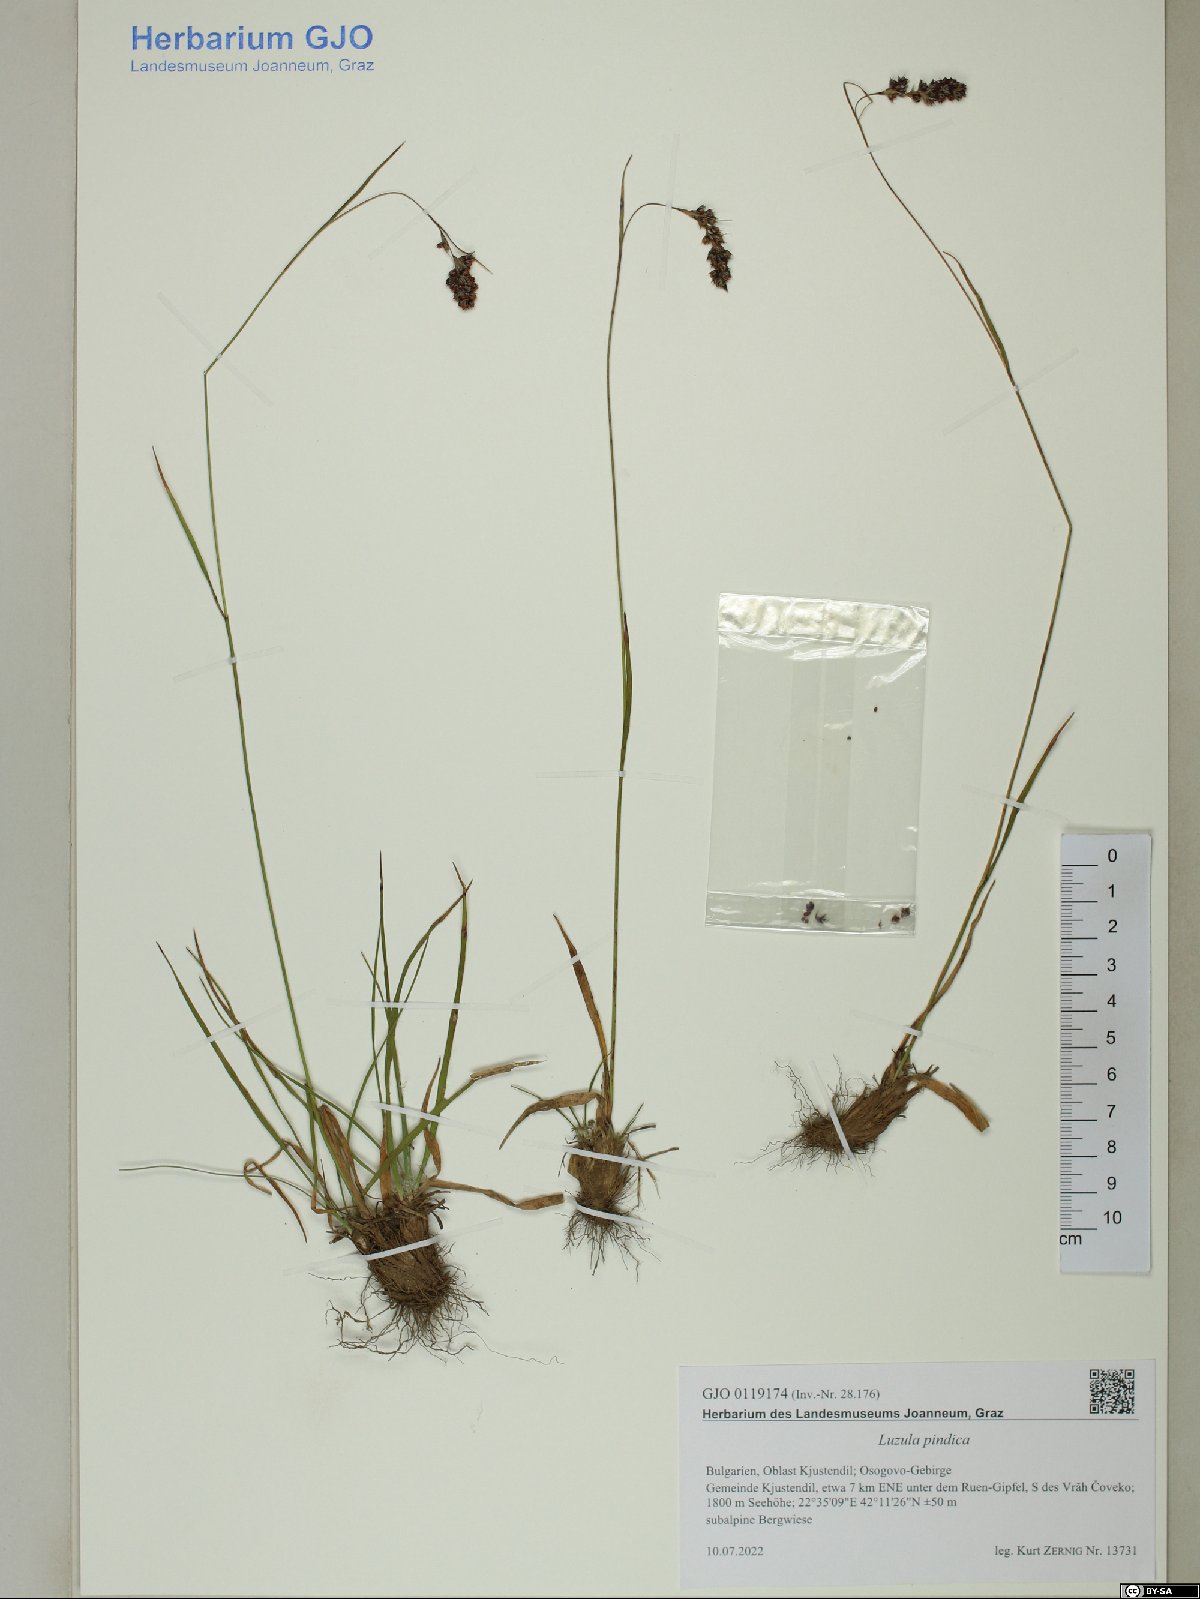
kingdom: Plantae
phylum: Tracheophyta
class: Liliopsida
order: Poales
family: Juncaceae
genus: Luzula
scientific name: Luzula pindica
